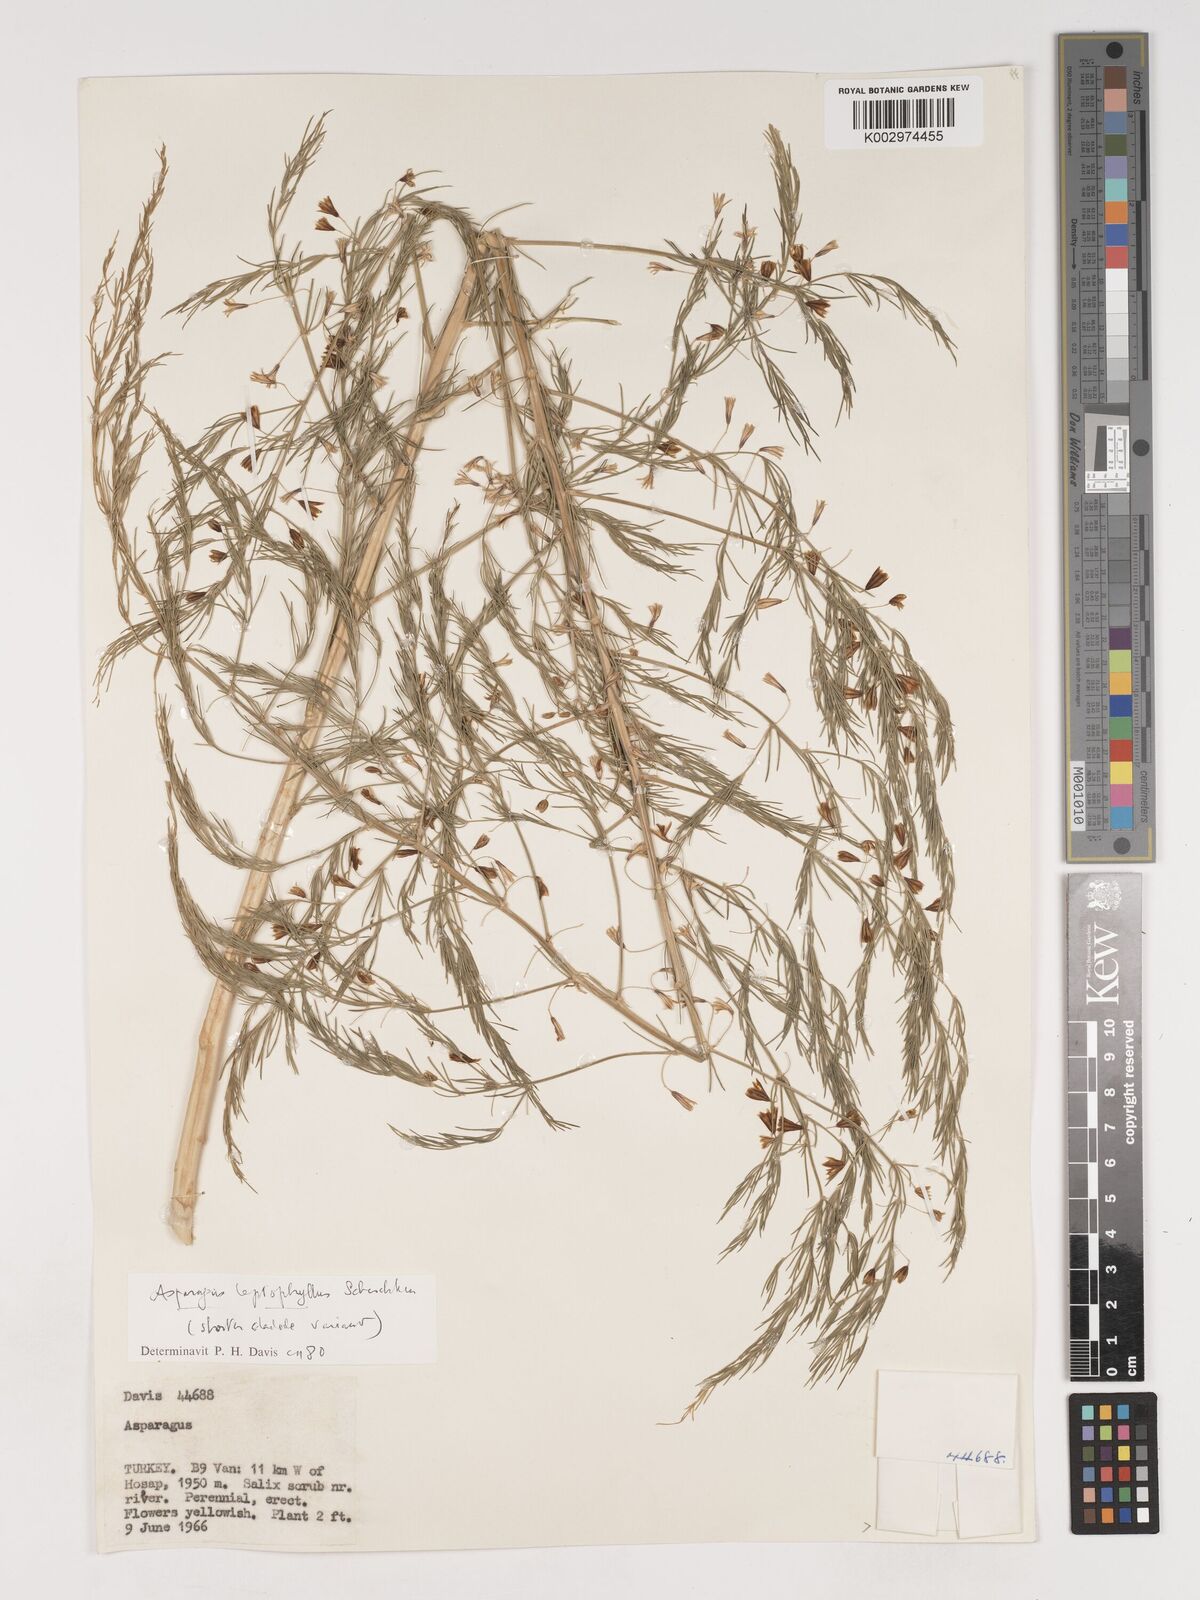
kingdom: Plantae
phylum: Tracheophyta
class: Liliopsida
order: Asparagales
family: Asparagaceae
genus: Asparagus
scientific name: Asparagus persicus
